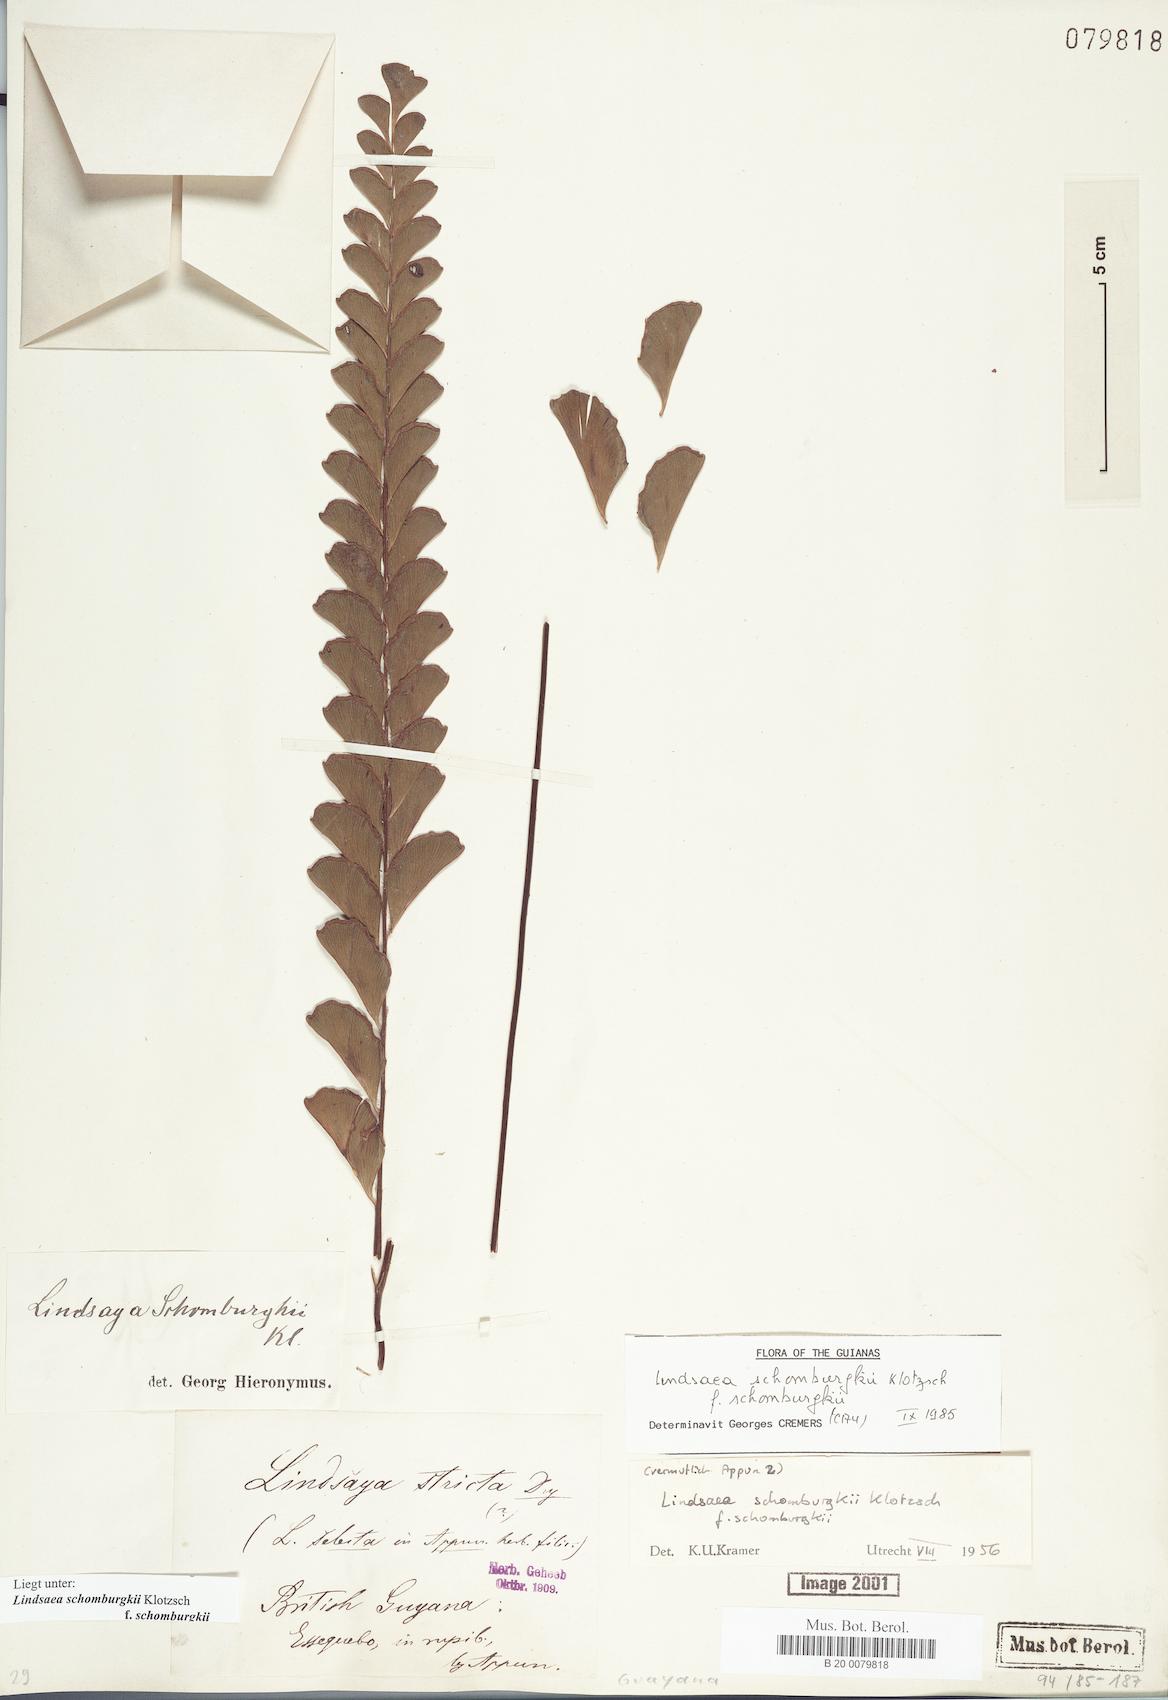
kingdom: Plantae
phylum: Tracheophyta
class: Polypodiopsida
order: Polypodiales
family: Lindsaeaceae
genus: Lindsaea
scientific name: Lindsaea schomburgkii
